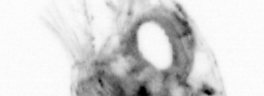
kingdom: Animalia
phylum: Arthropoda
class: Copepoda
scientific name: Copepoda
